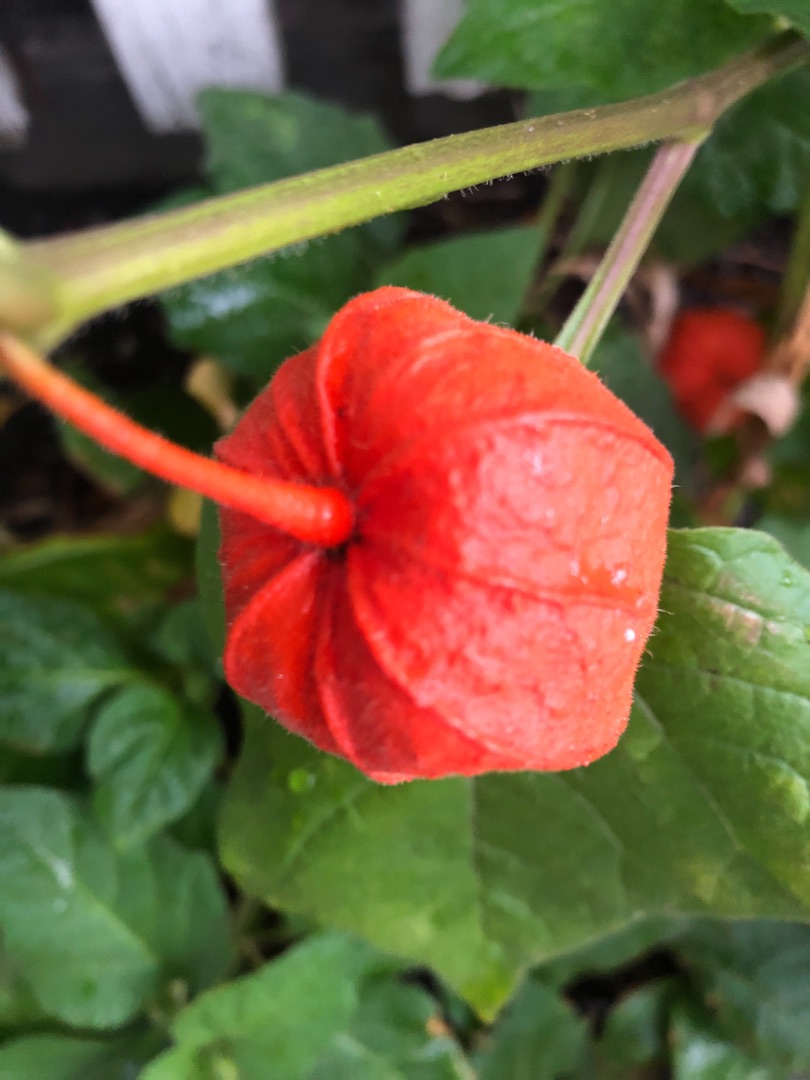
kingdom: Plantae
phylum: Tracheophyta
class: Magnoliopsida
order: Solanales
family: Solanaceae
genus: Alkekengi
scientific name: Alkekengi officinarum
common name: Jødekirsebær
